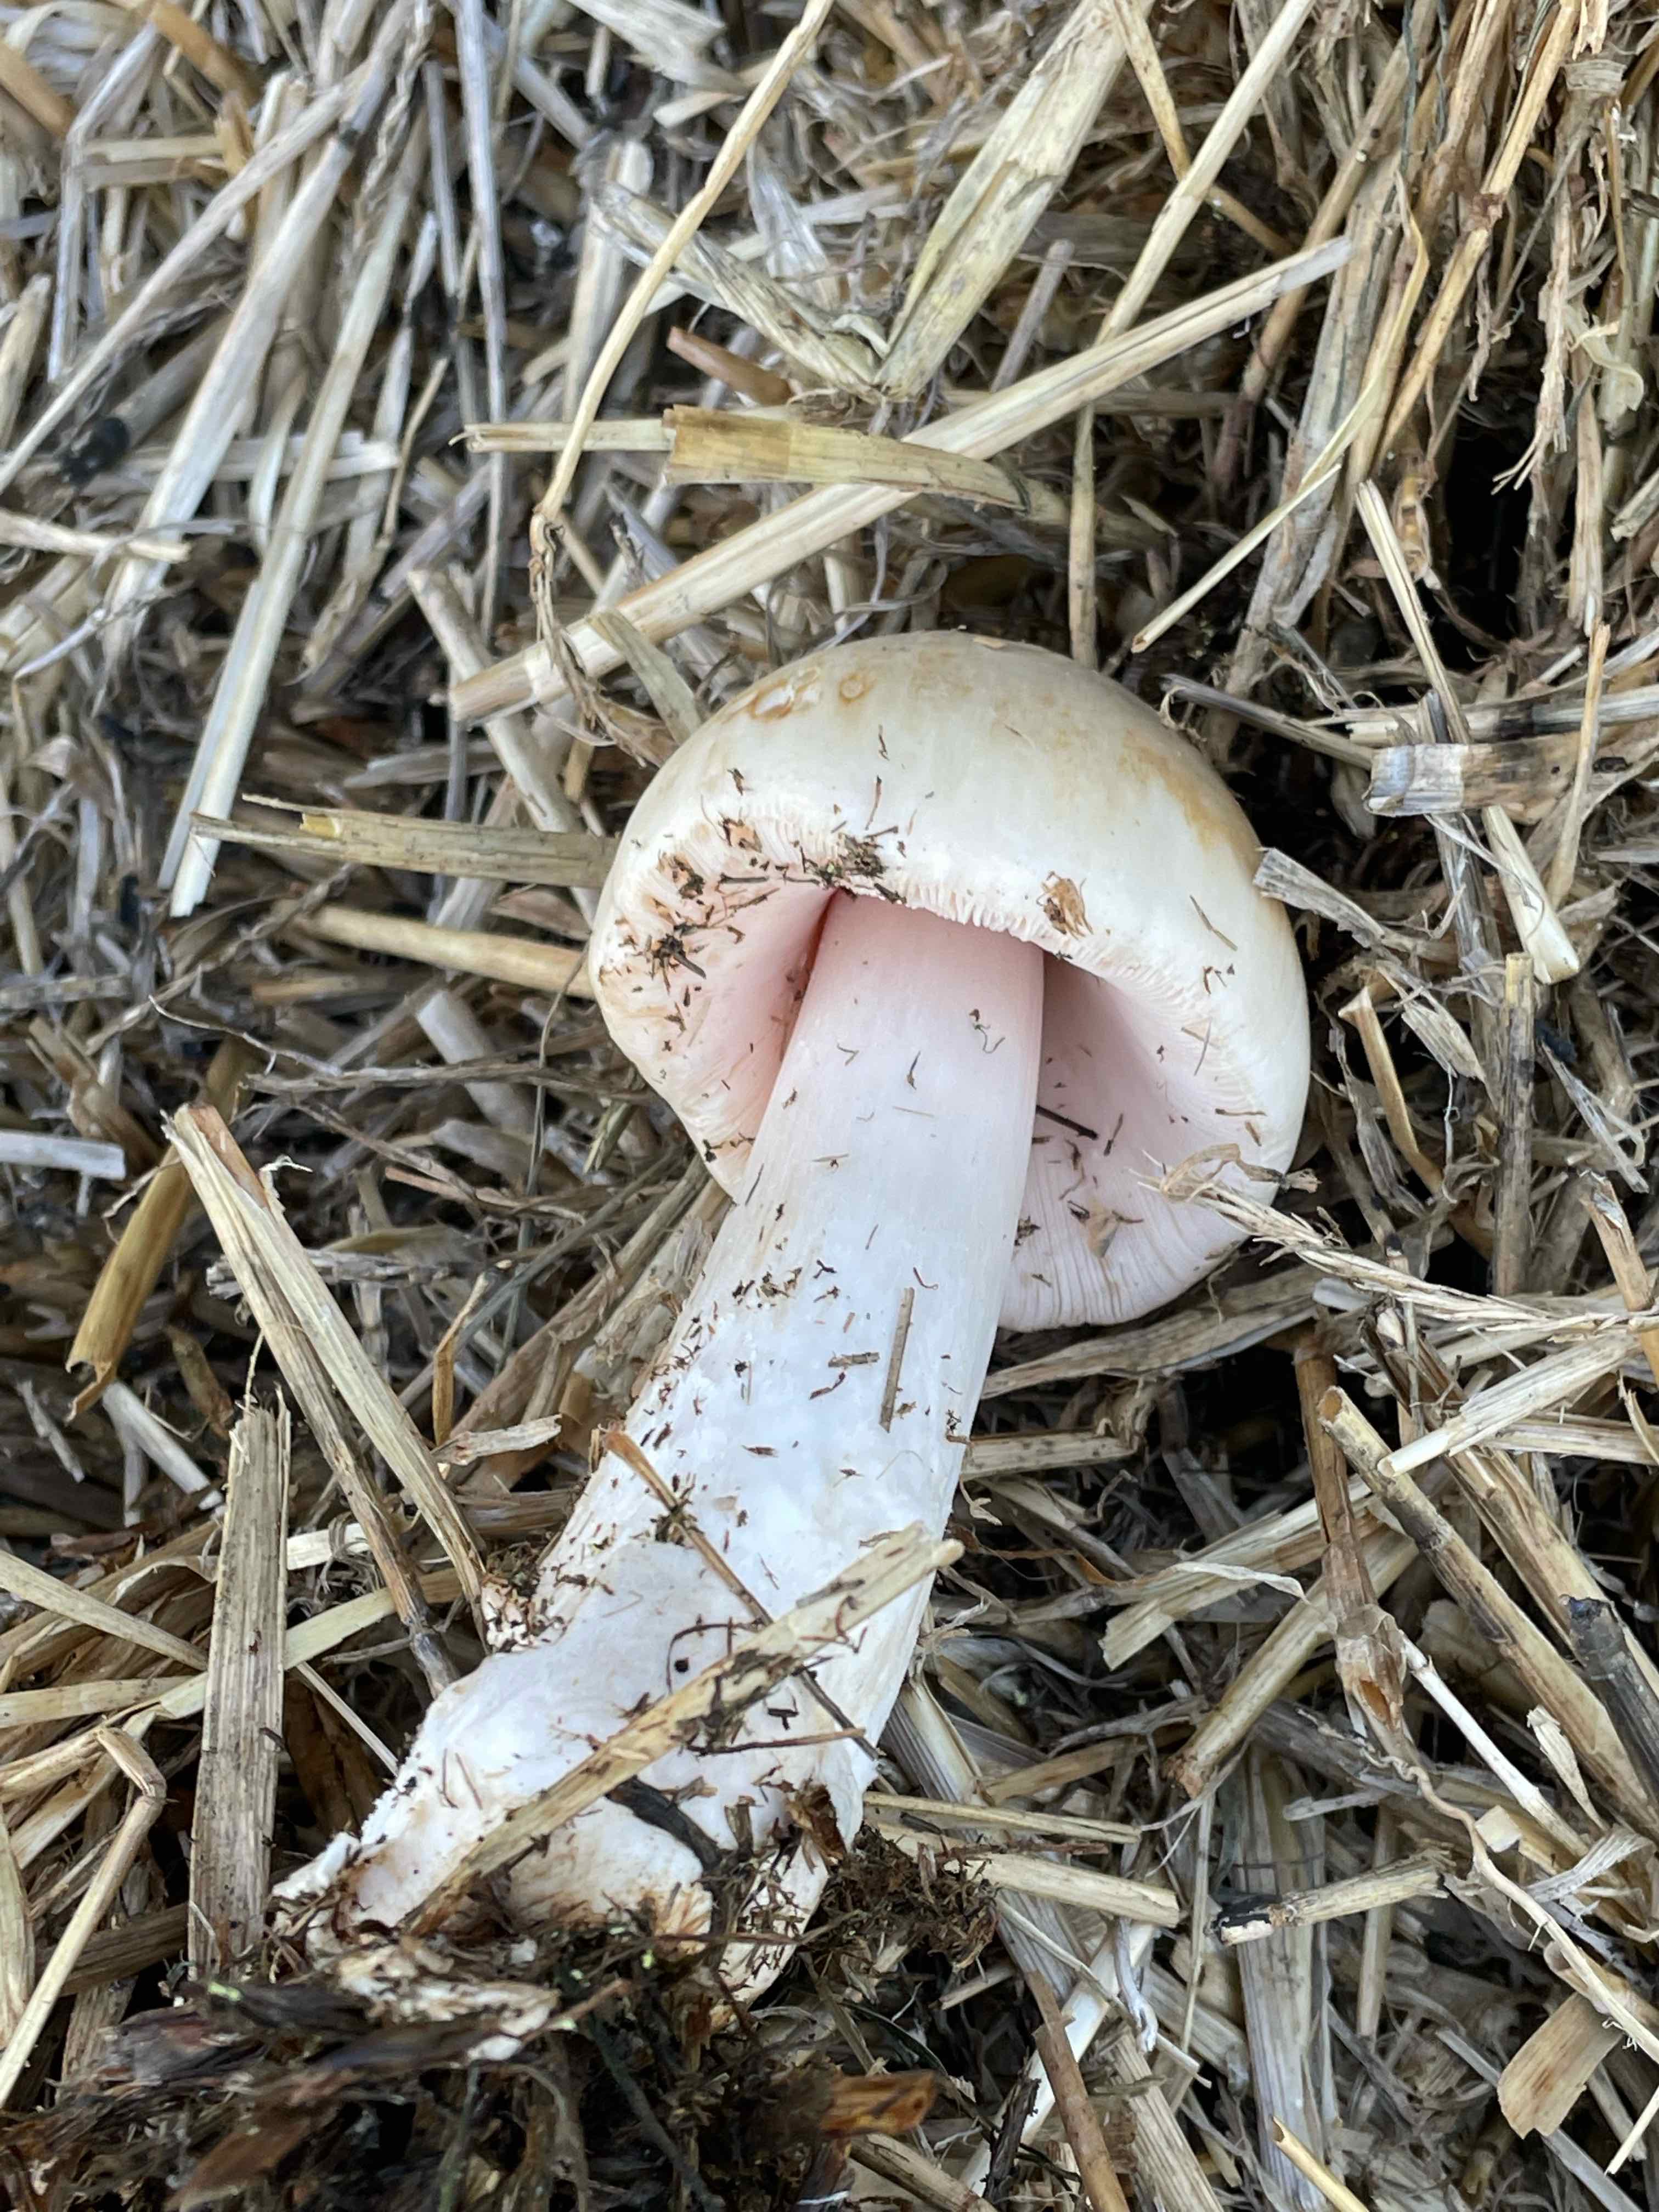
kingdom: Fungi
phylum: Basidiomycota
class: Agaricomycetes
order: Agaricales
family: Pluteaceae
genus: Volvopluteus
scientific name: Volvopluteus gloiocephalus
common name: høj posesvamp
